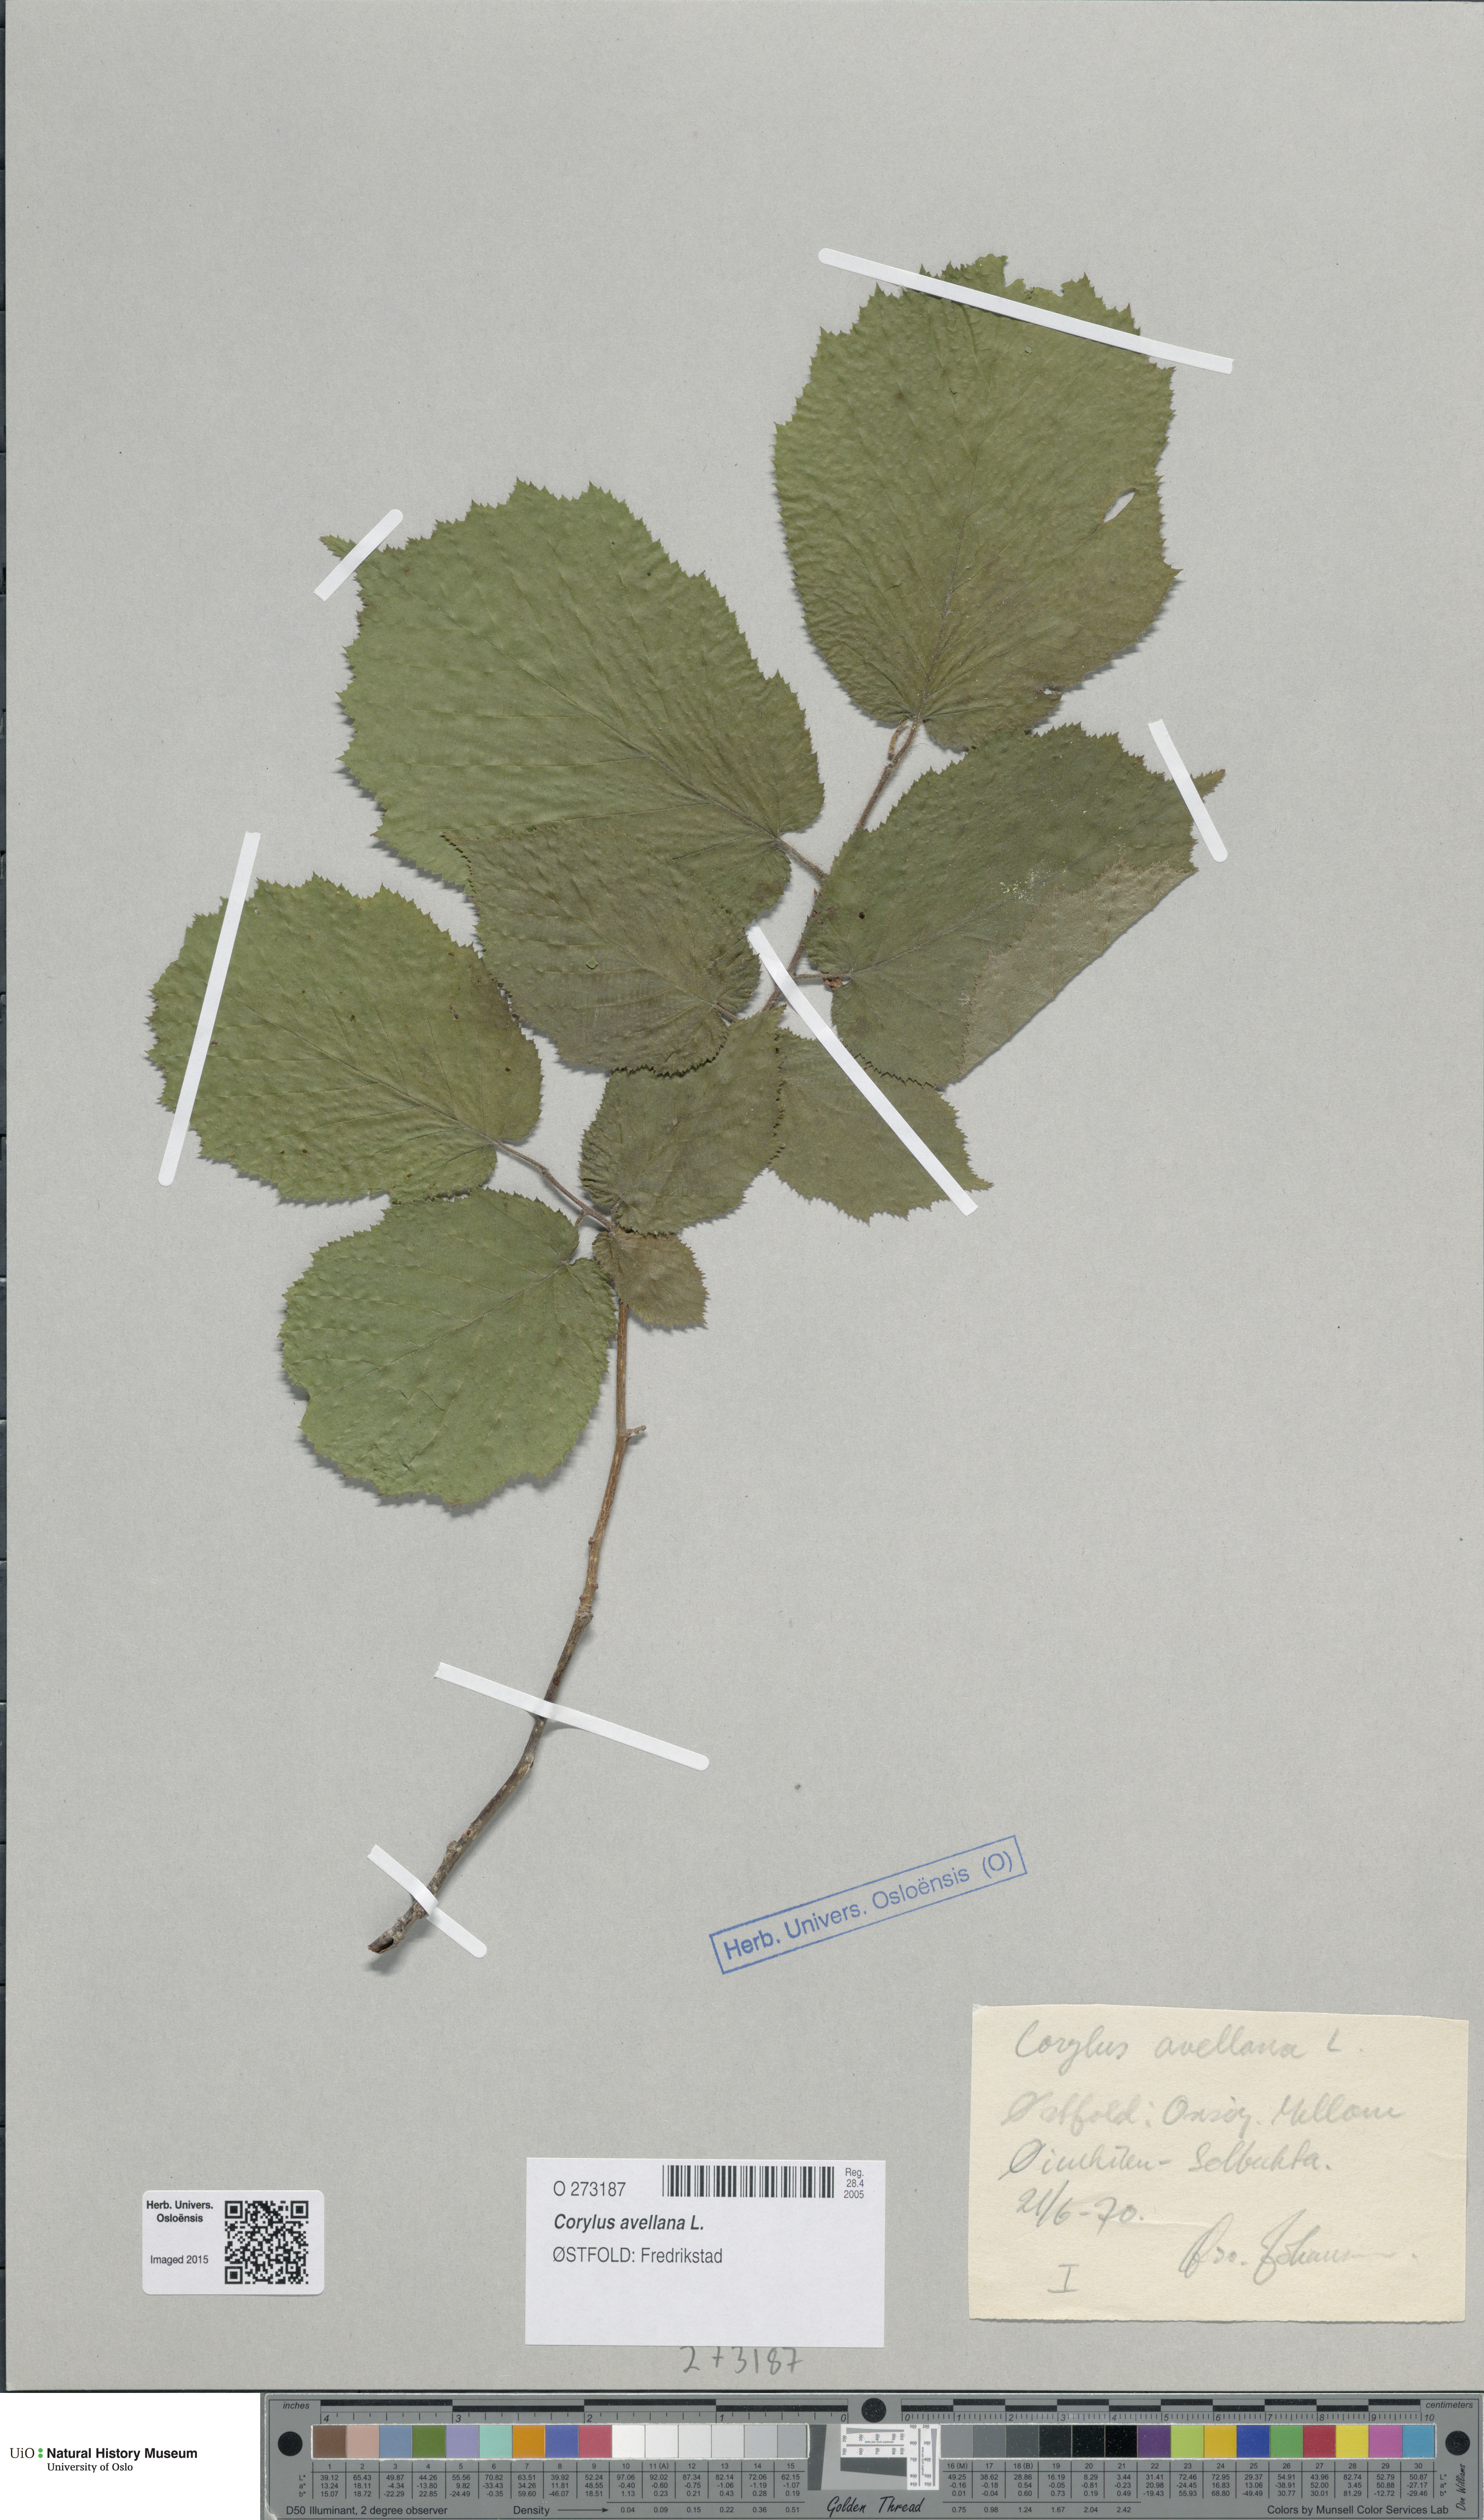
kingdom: Plantae
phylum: Tracheophyta
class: Magnoliopsida
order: Fagales
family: Betulaceae
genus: Corylus
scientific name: Corylus avellana
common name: European hazel
